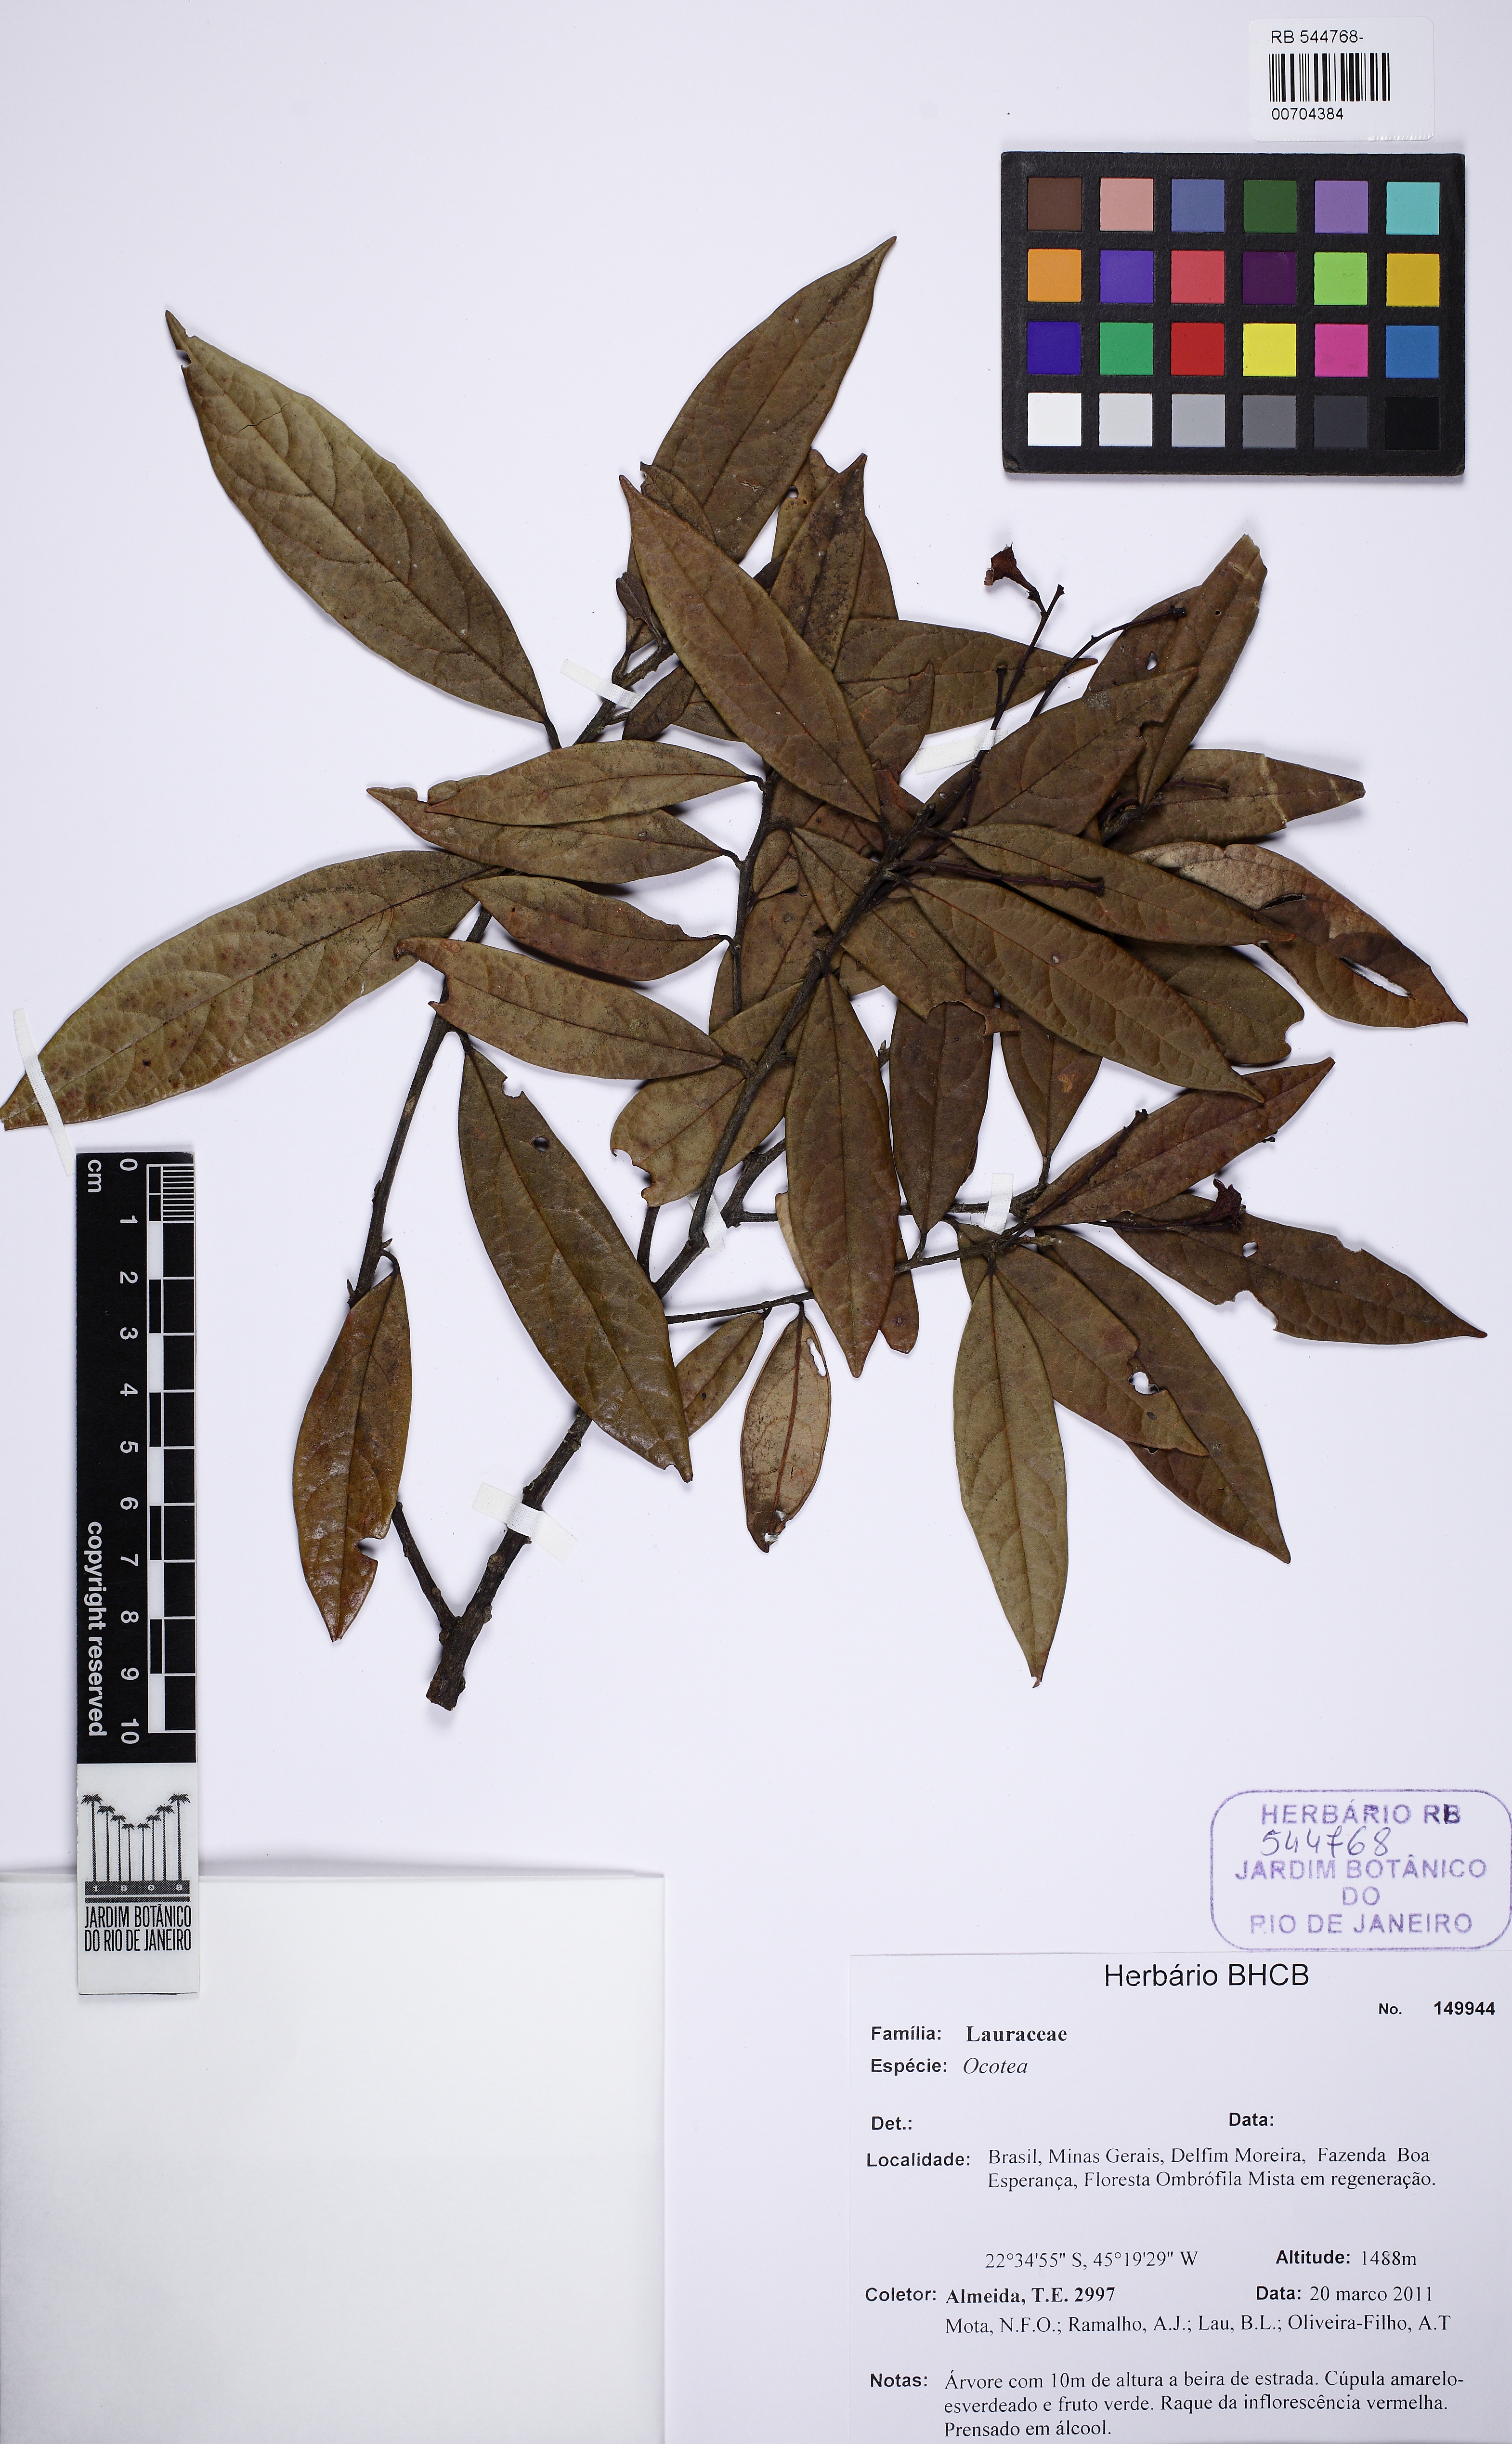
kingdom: Plantae
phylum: Tracheophyta
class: Magnoliopsida
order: Laurales
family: Lauraceae
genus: Aiouea
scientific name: Aiouea stenophylla
